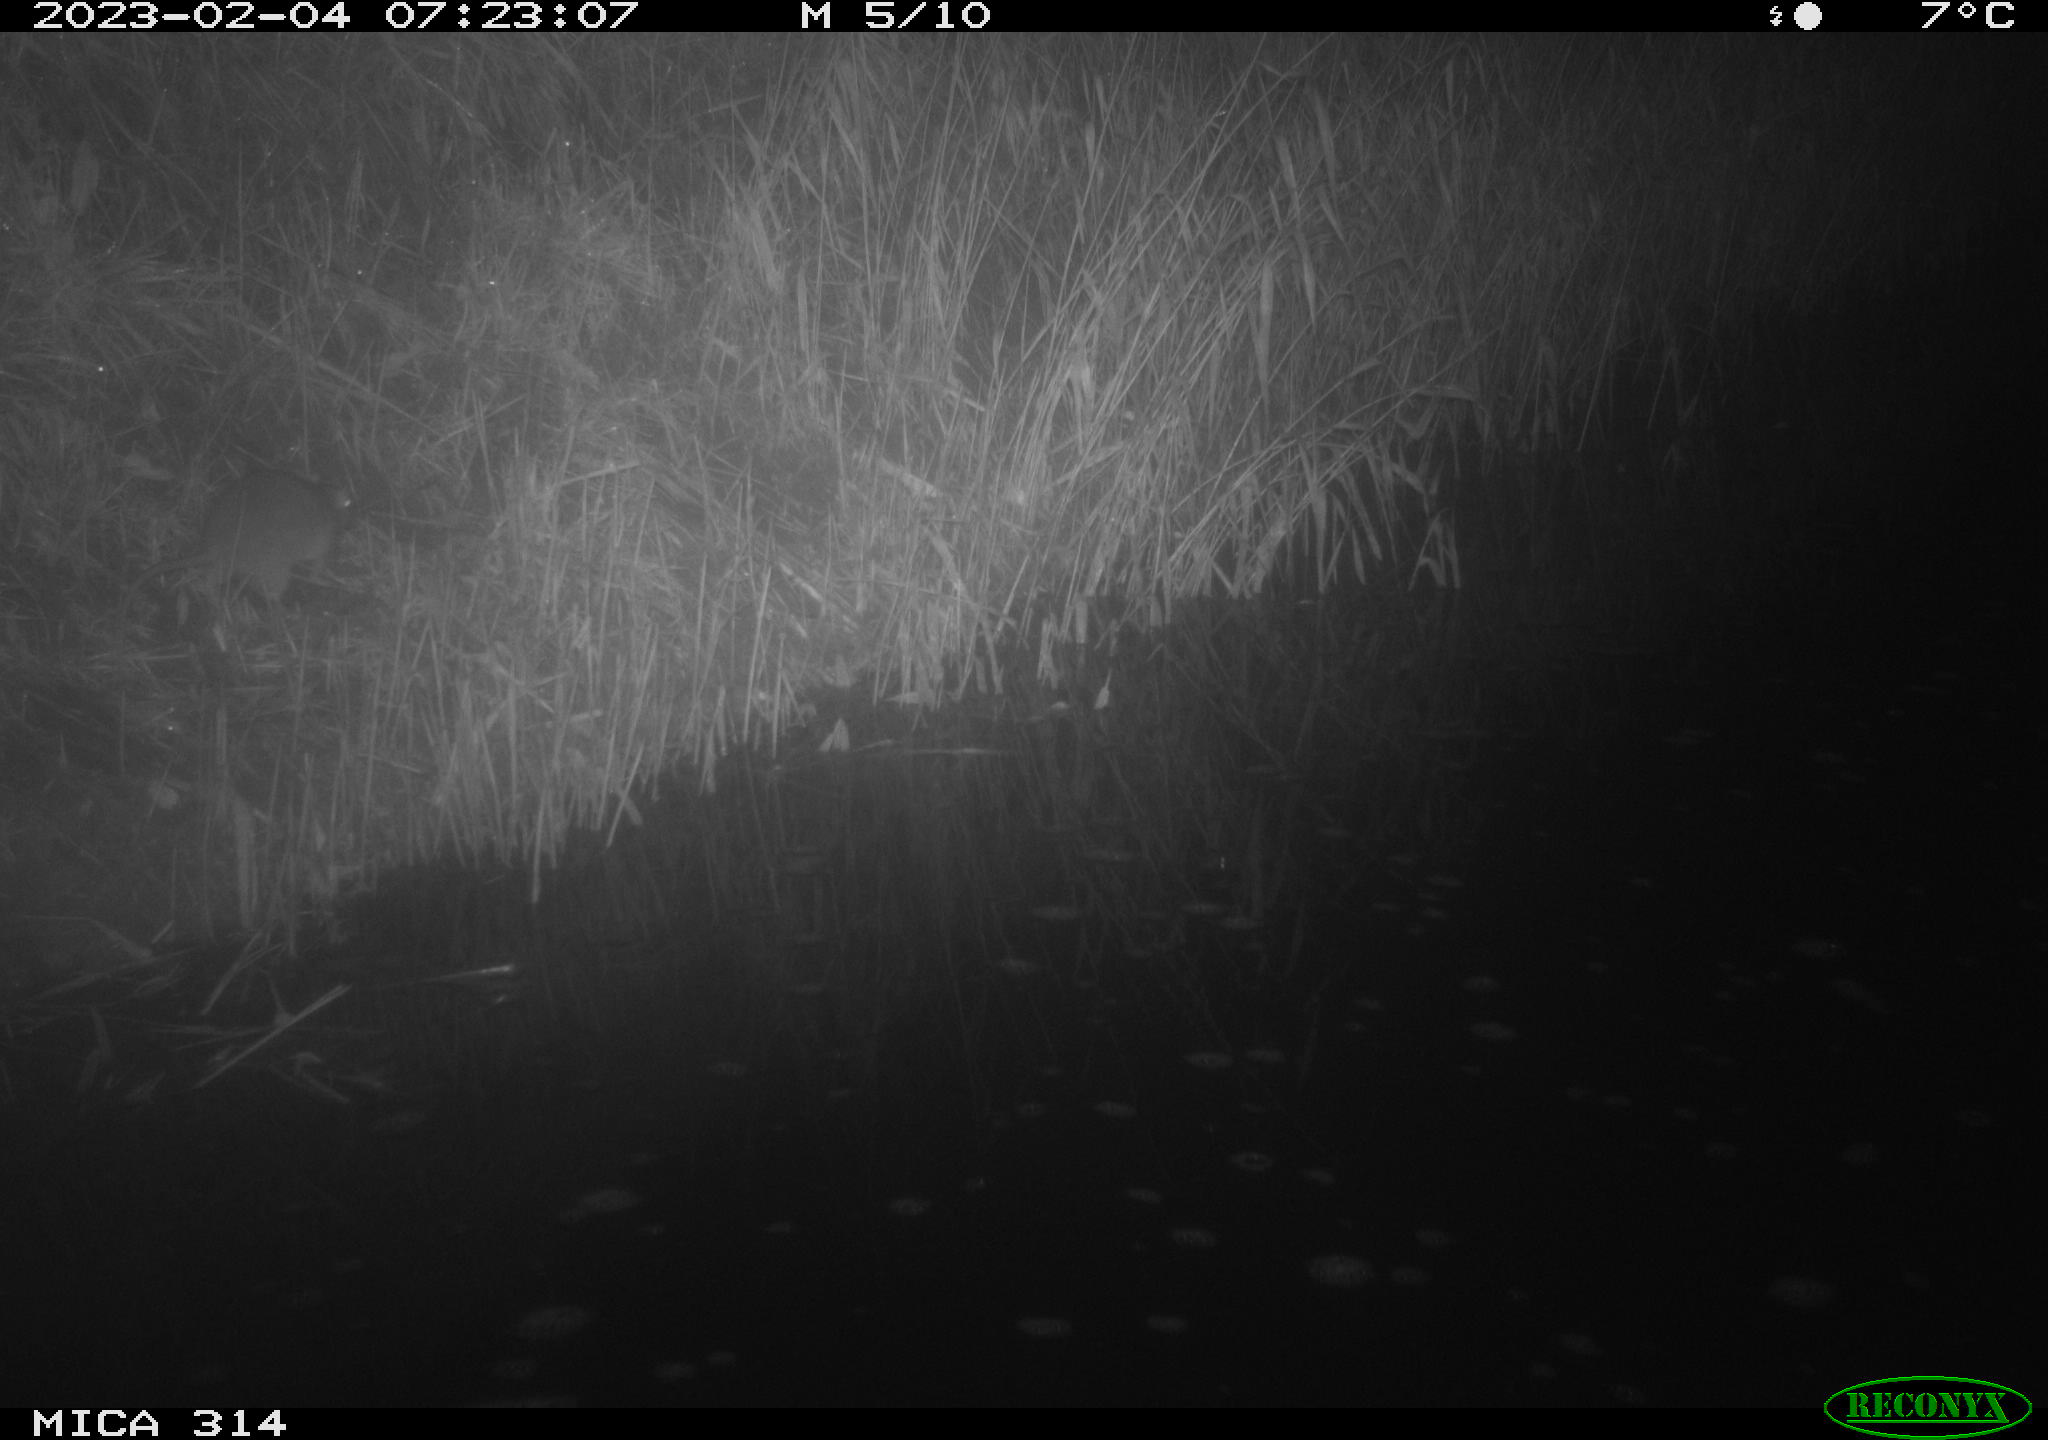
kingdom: Animalia
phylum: Chordata
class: Mammalia
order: Rodentia
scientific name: Rodentia
